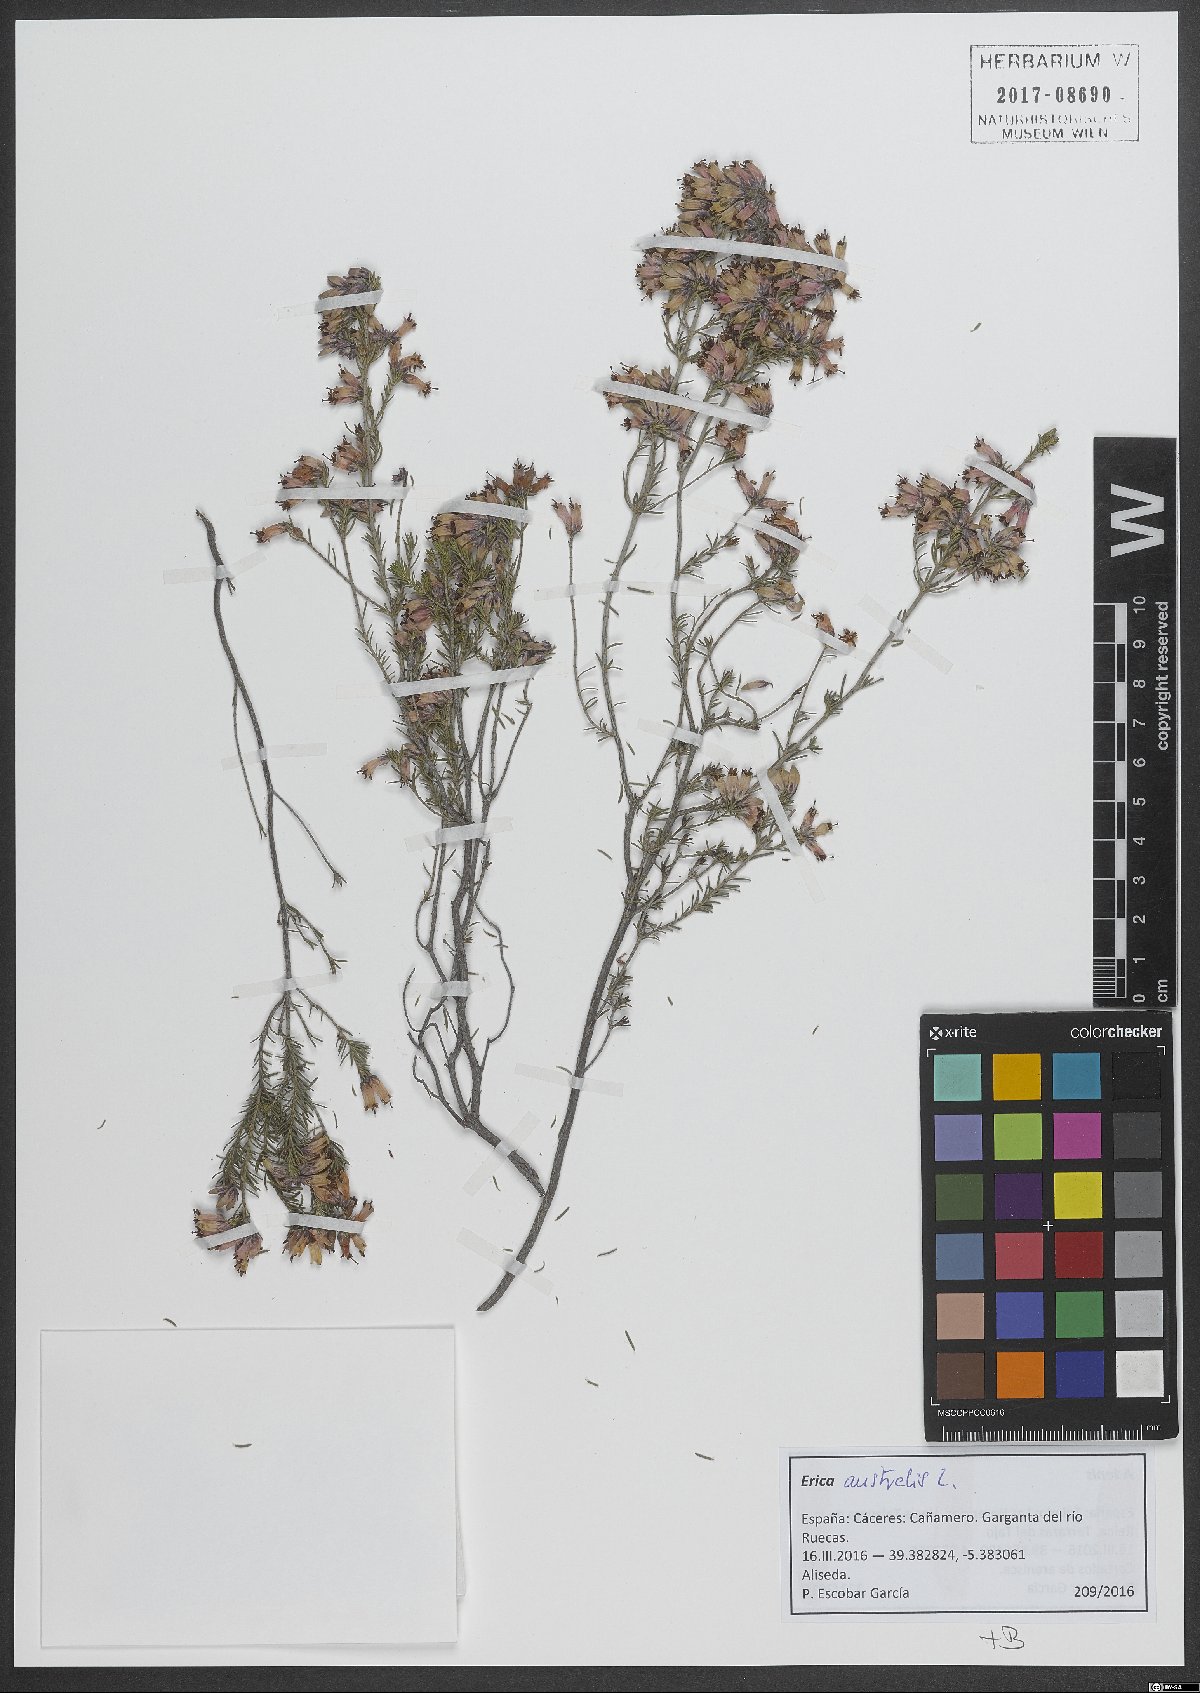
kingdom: Plantae
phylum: Tracheophyta
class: Magnoliopsida
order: Ericales
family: Ericaceae
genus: Erica
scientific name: Erica australis
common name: Spanish heath
